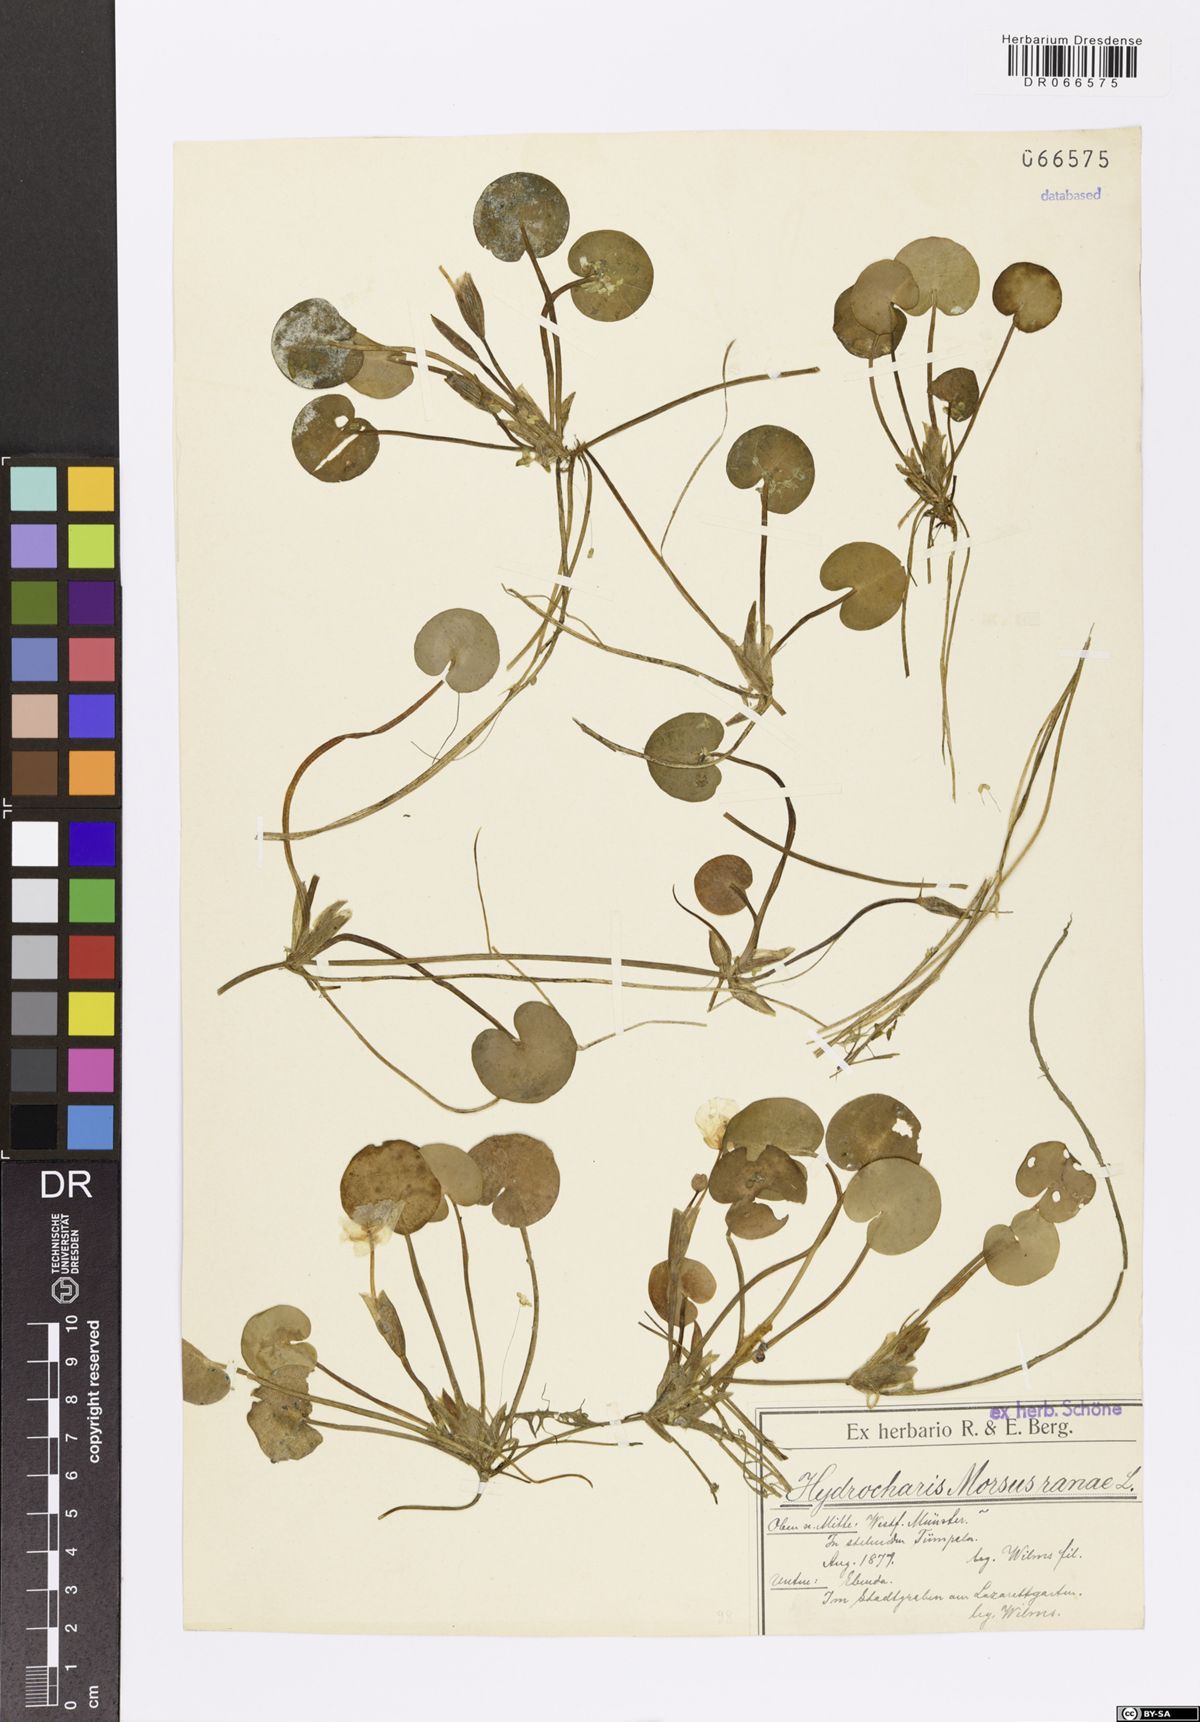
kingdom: Plantae
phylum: Tracheophyta
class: Liliopsida
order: Alismatales
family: Hydrocharitaceae
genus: Hydrocharis
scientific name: Hydrocharis morsus-ranae
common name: Frogbit
